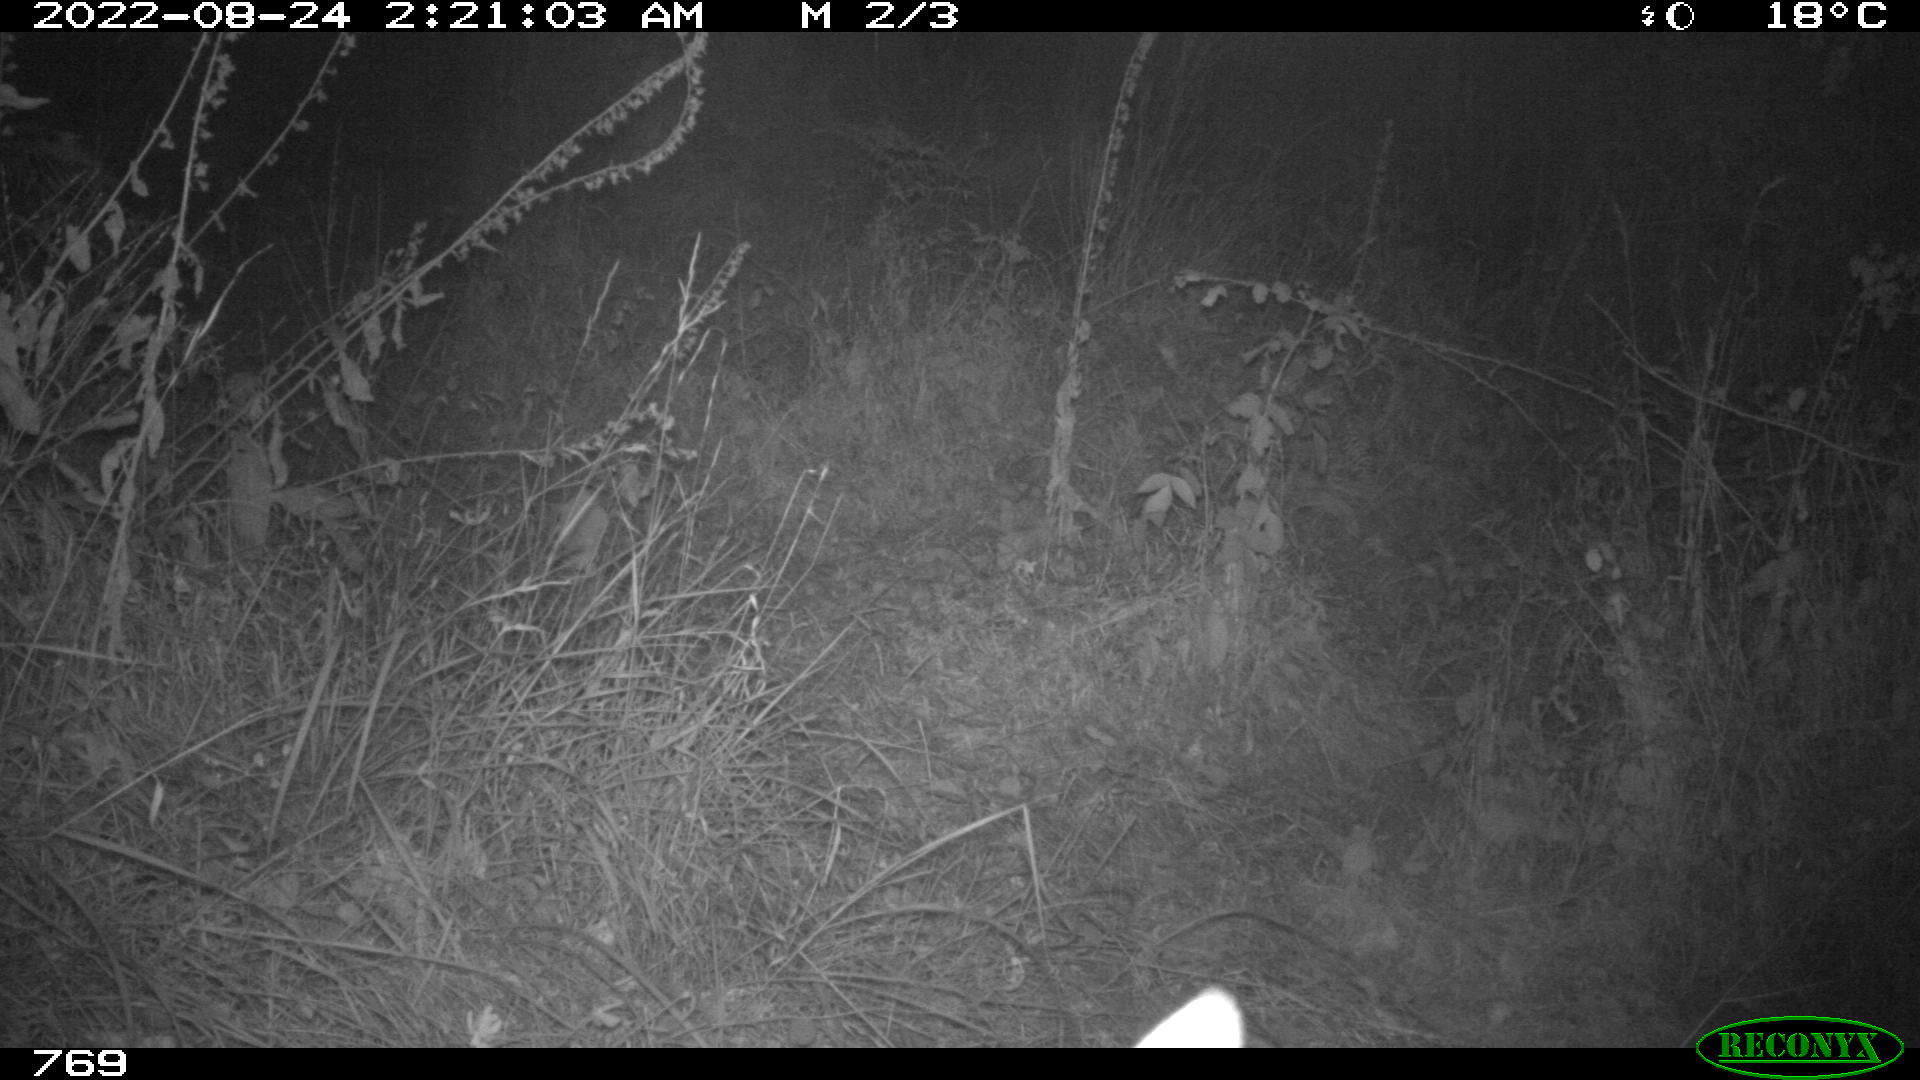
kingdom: Animalia
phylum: Chordata
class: Mammalia
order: Artiodactyla
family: Cervidae
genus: Capreolus
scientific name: Capreolus capreolus
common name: Western roe deer
